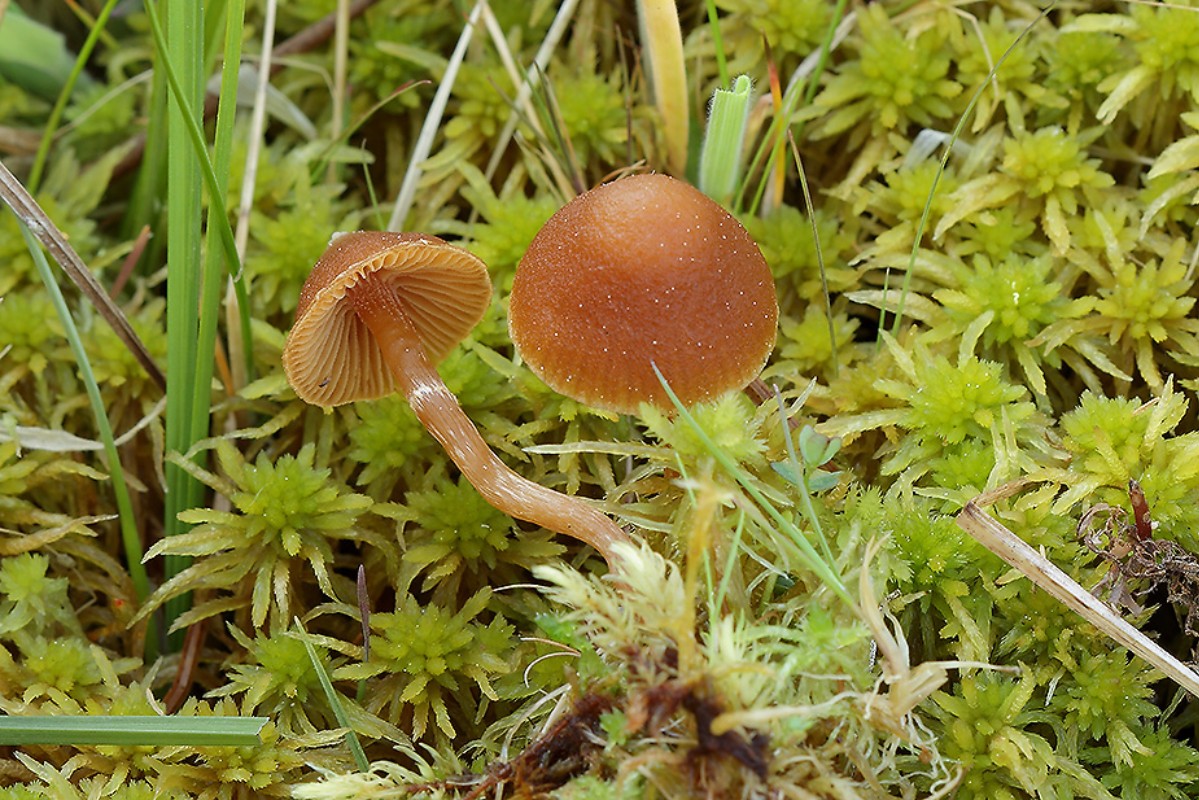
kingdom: Fungi
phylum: Basidiomycota
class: Agaricomycetes
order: Agaricales
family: Hymenogastraceae
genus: Galerina
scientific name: Galerina paludosa
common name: mose-hjelmhat
